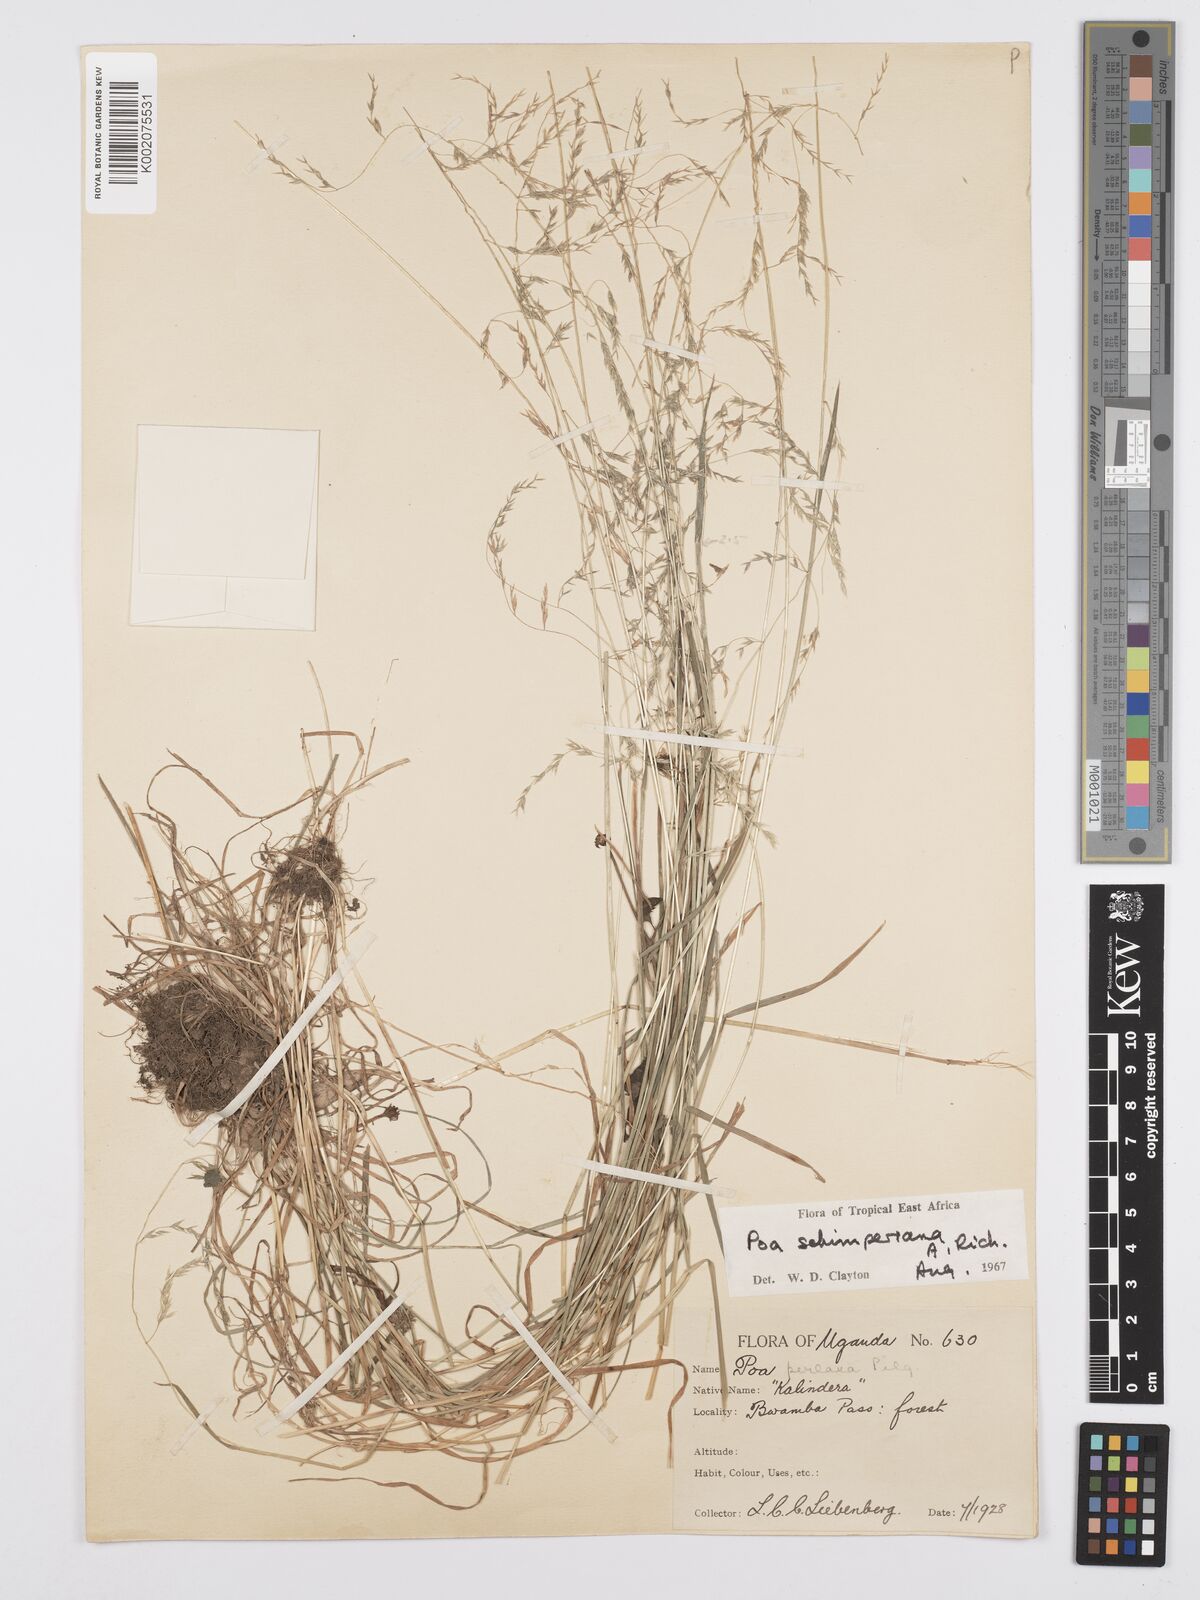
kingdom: Plantae
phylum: Tracheophyta
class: Liliopsida
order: Poales
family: Poaceae
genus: Poa
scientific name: Poa schimperiana
